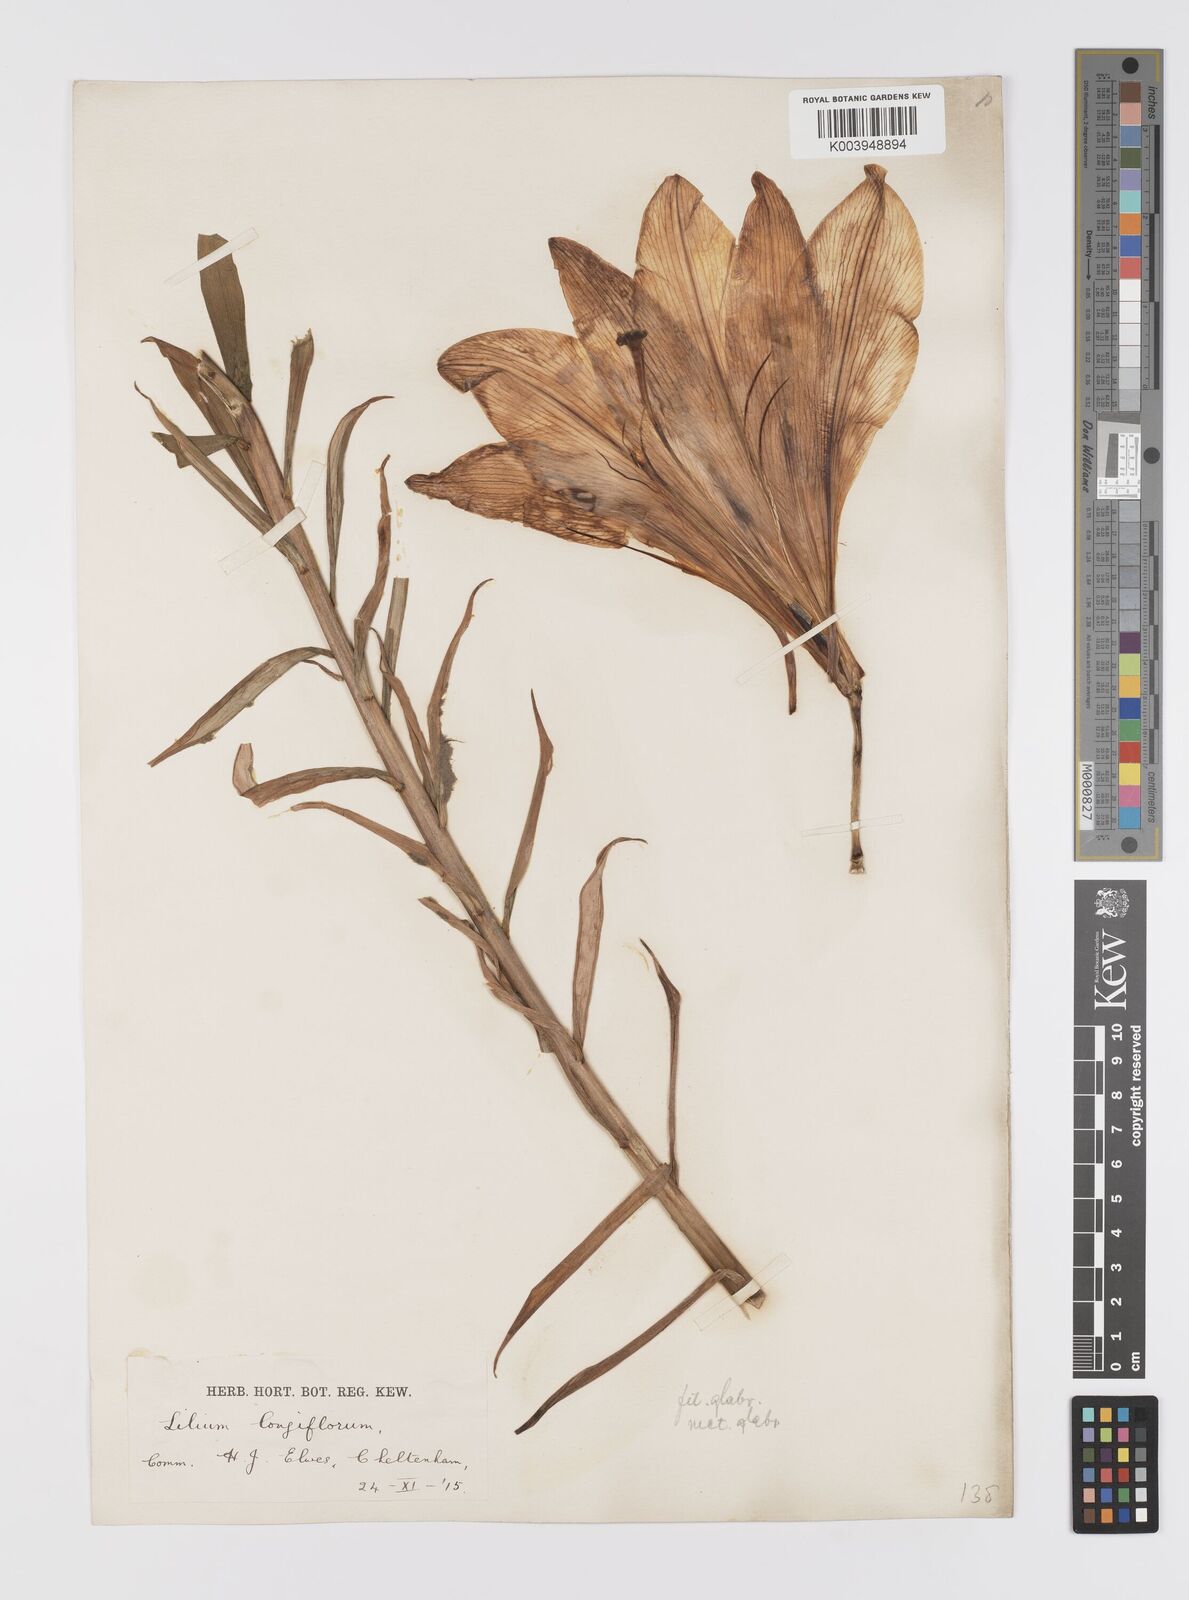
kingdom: Plantae
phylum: Tracheophyta
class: Liliopsida
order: Liliales
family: Liliaceae
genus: Lilium
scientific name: Lilium
